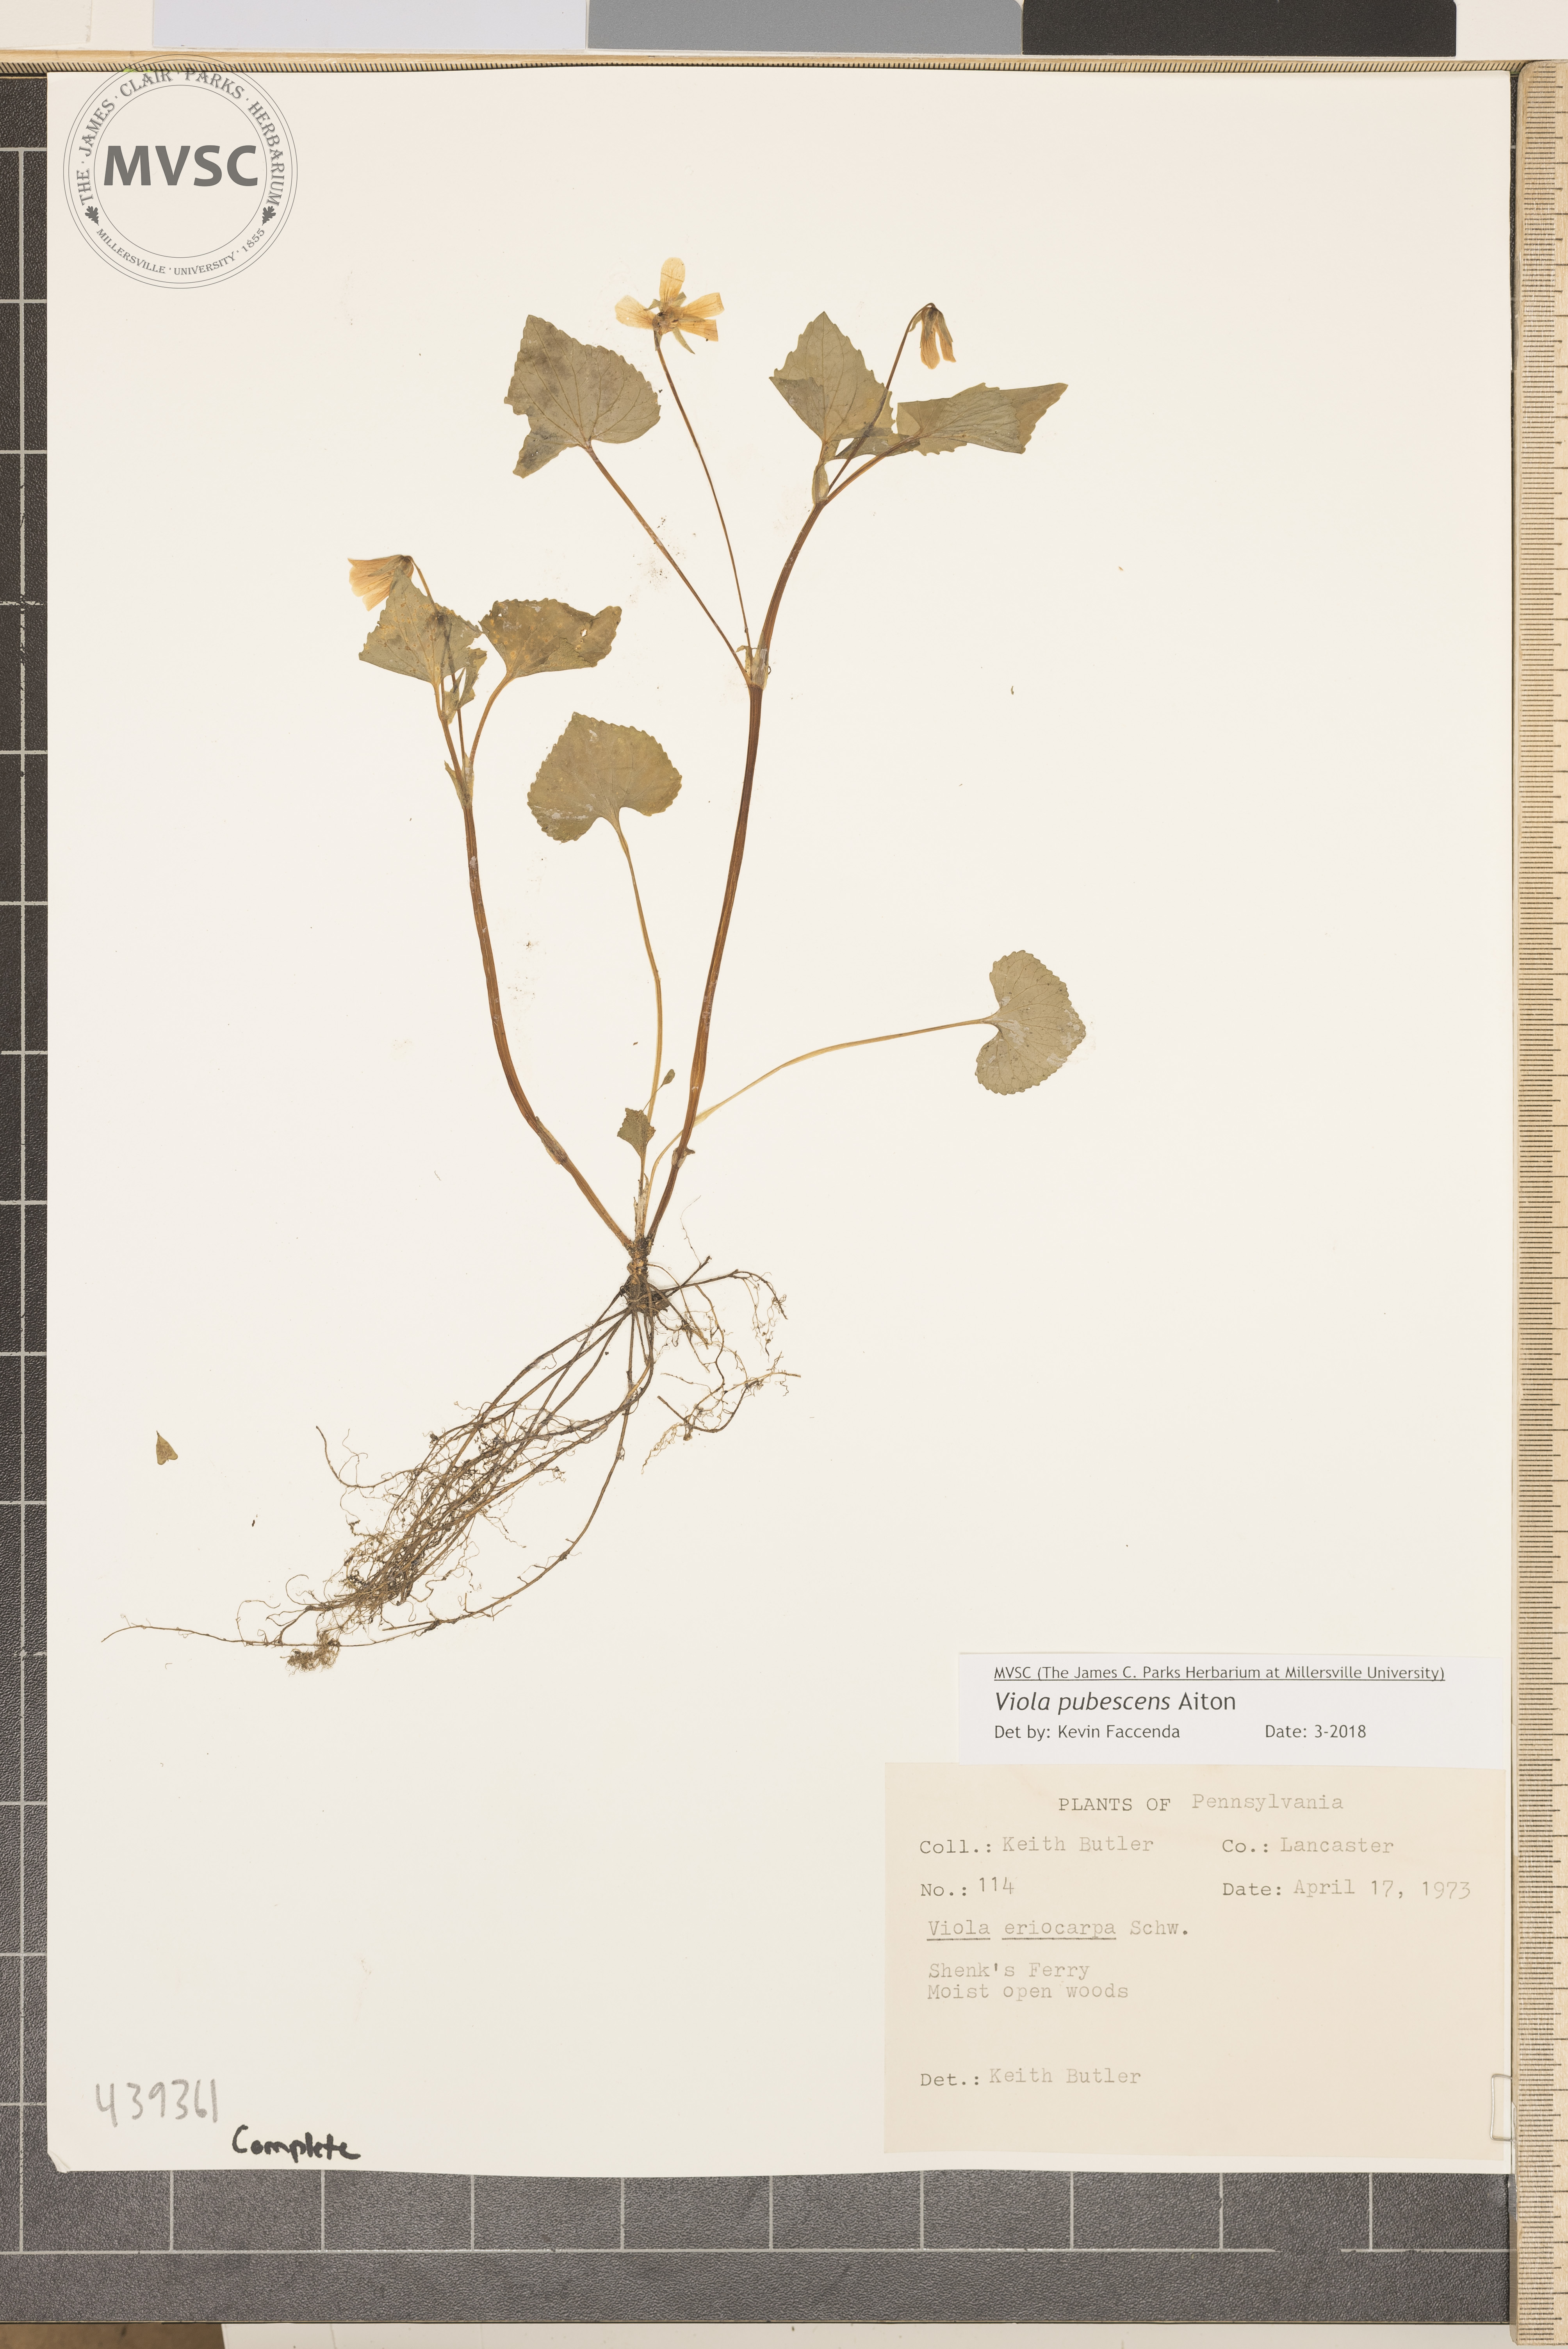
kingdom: Plantae
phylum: Tracheophyta
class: Magnoliopsida
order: Malpighiales
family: Violaceae
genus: Viola
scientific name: Viola pubescens
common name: Violet
